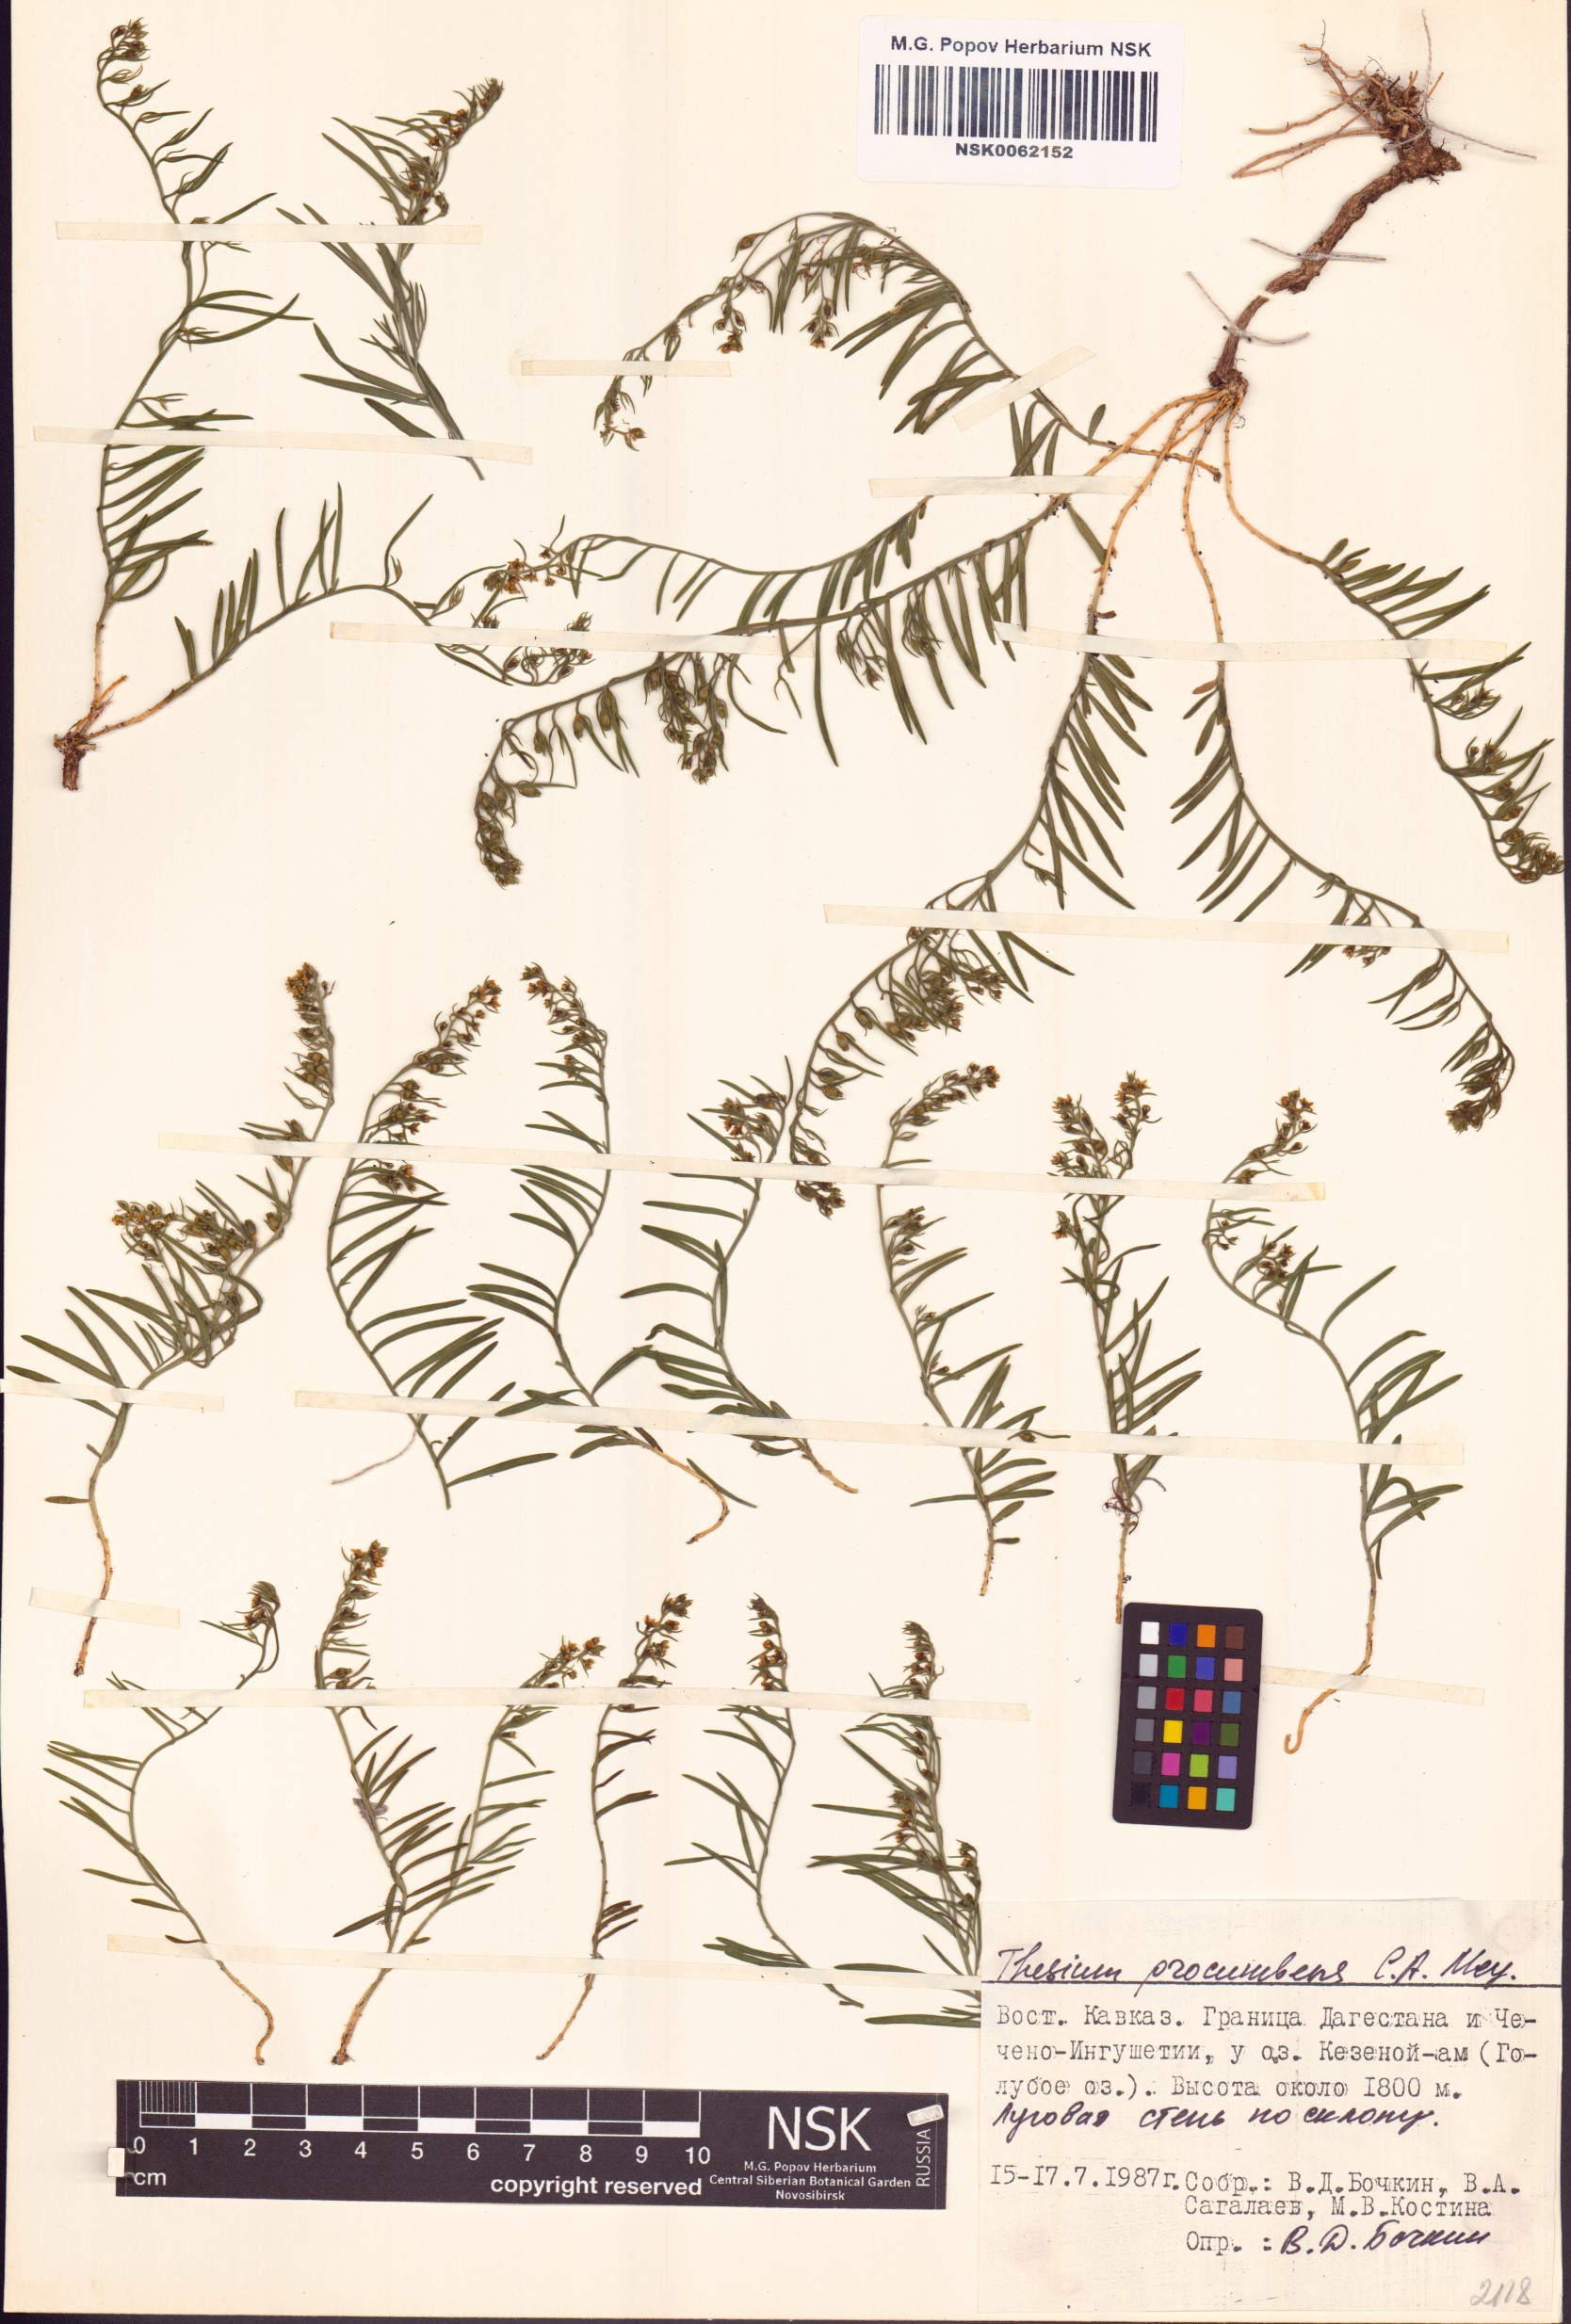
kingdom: Plantae
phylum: Tracheophyta
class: Magnoliopsida
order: Santalales
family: Thesiaceae
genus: Thesium
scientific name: Thesium procumbens
